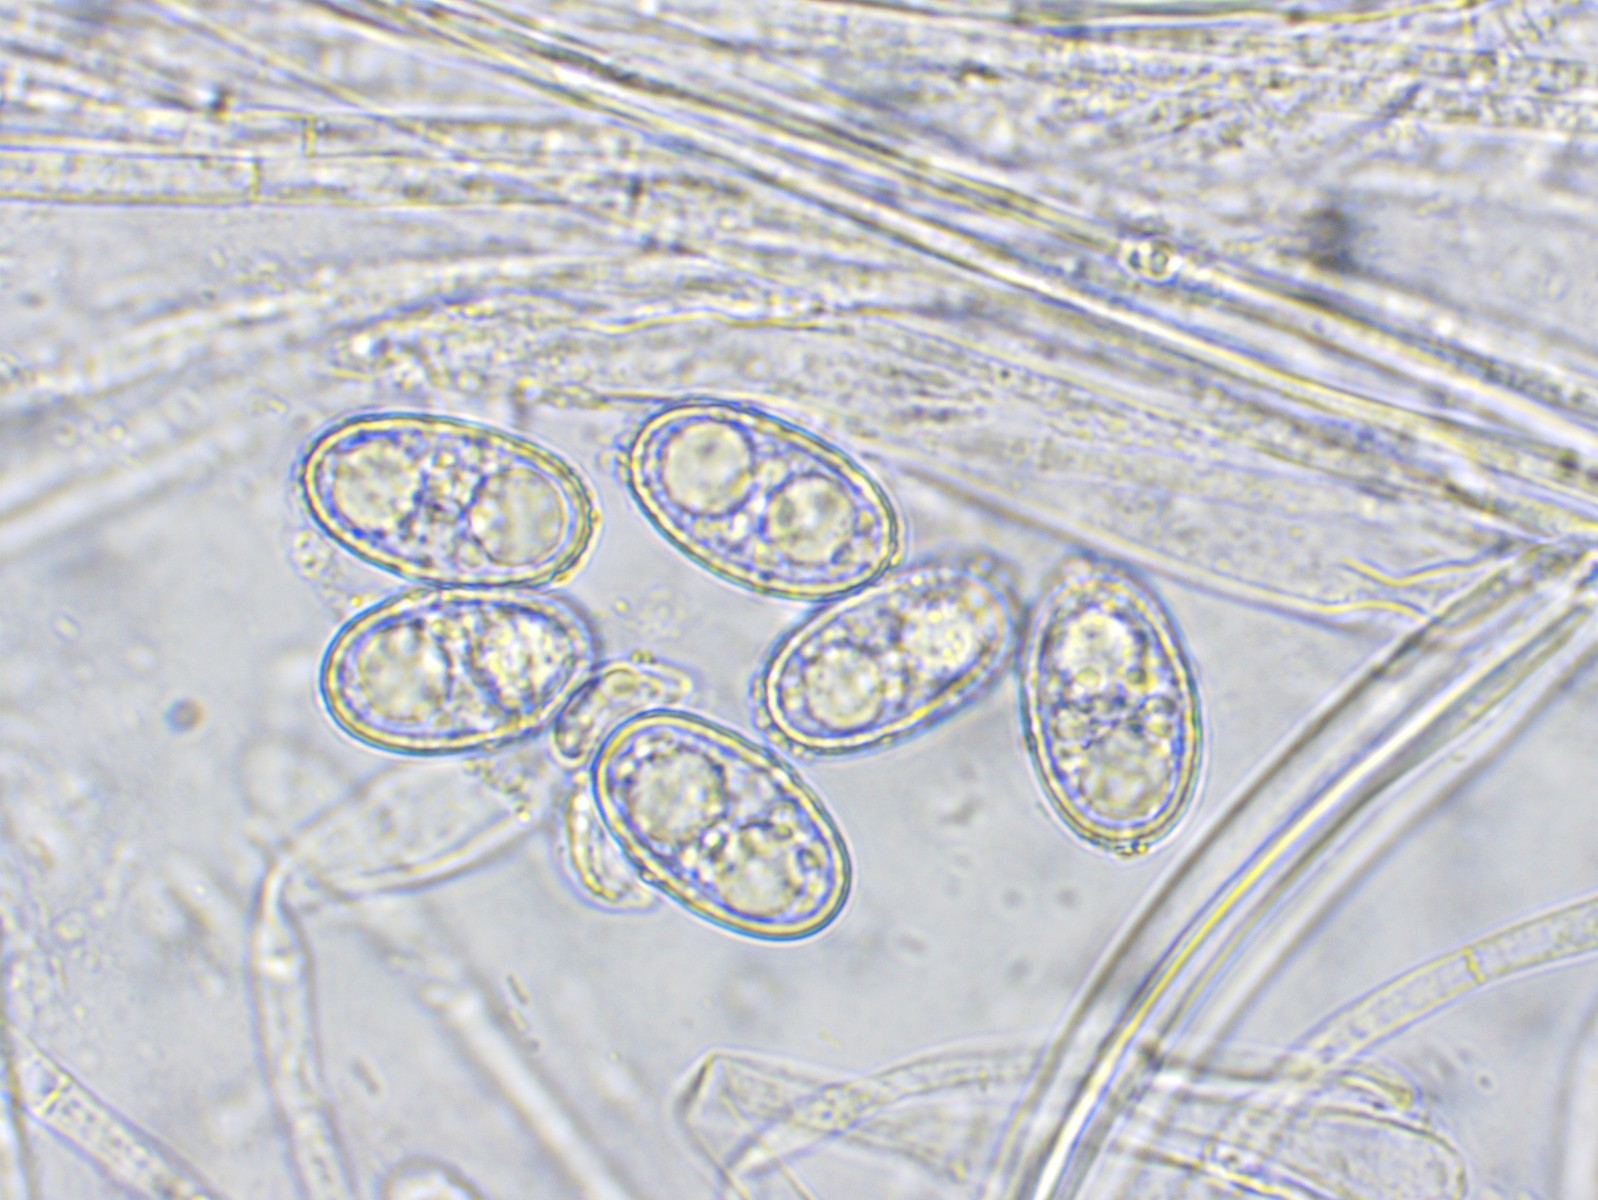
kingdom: Fungi
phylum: Ascomycota
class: Pezizomycetes
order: Pezizales
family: Pyronemataceae
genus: Humaria
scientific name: Humaria hemisphaerica
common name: halvkugleformet børstebæger
